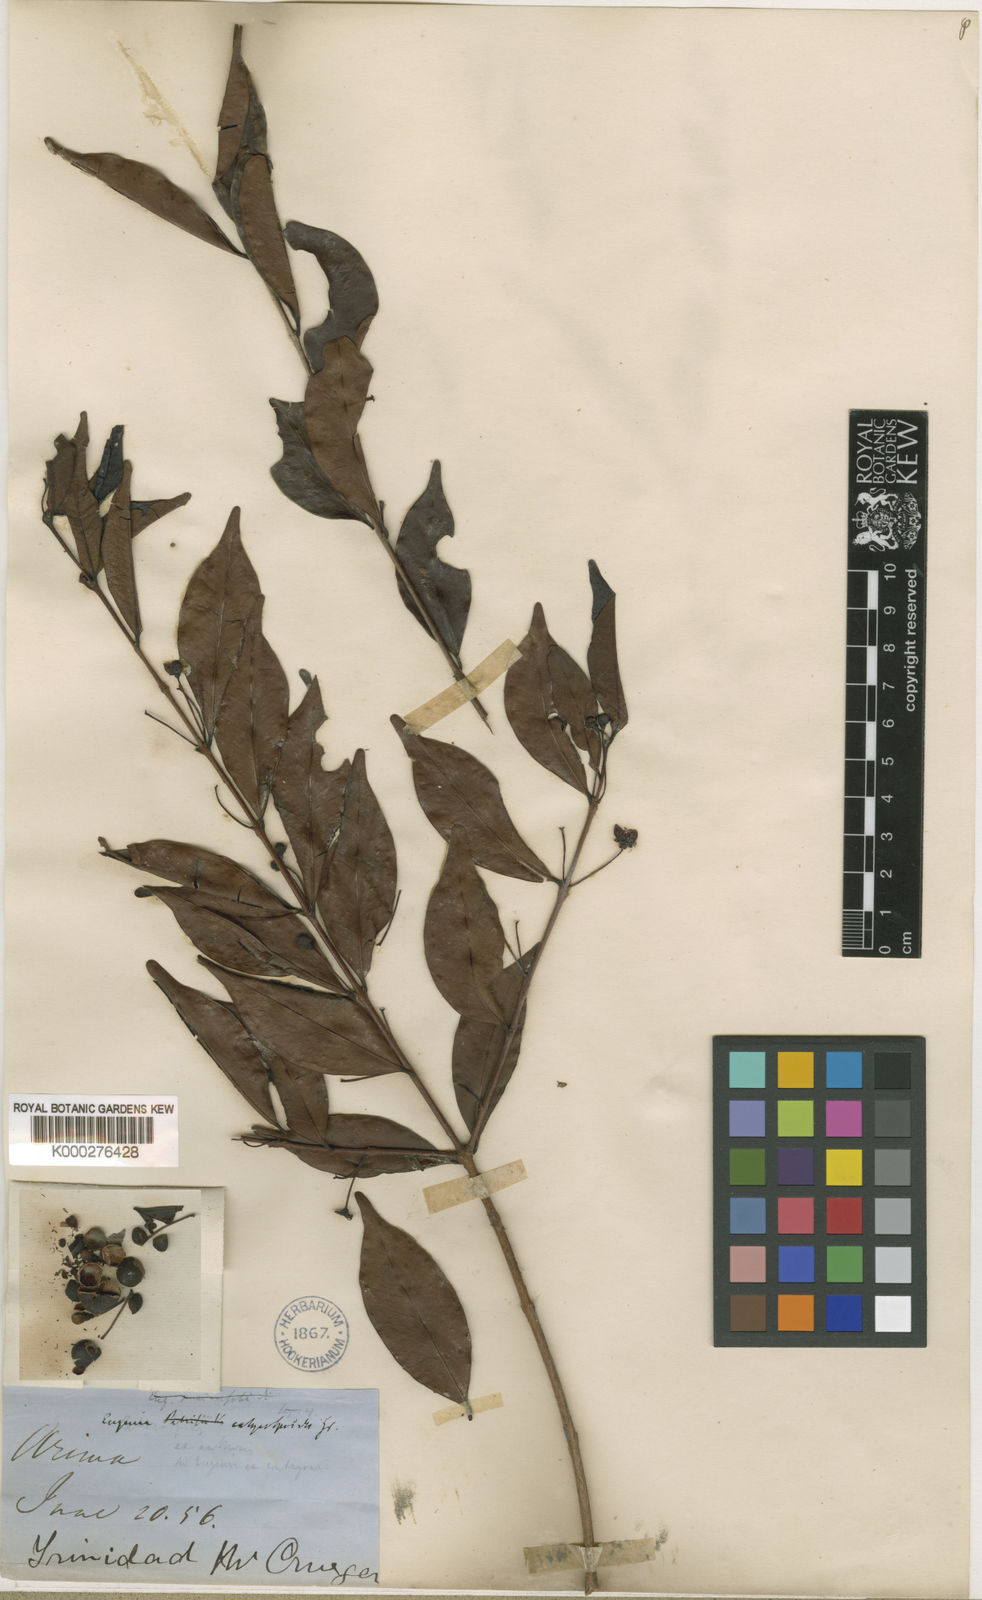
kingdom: Plantae
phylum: Tracheophyta
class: Magnoliopsida
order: Myrtales
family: Myrtaceae
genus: Eugenia
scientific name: Eugenia punicifolia
